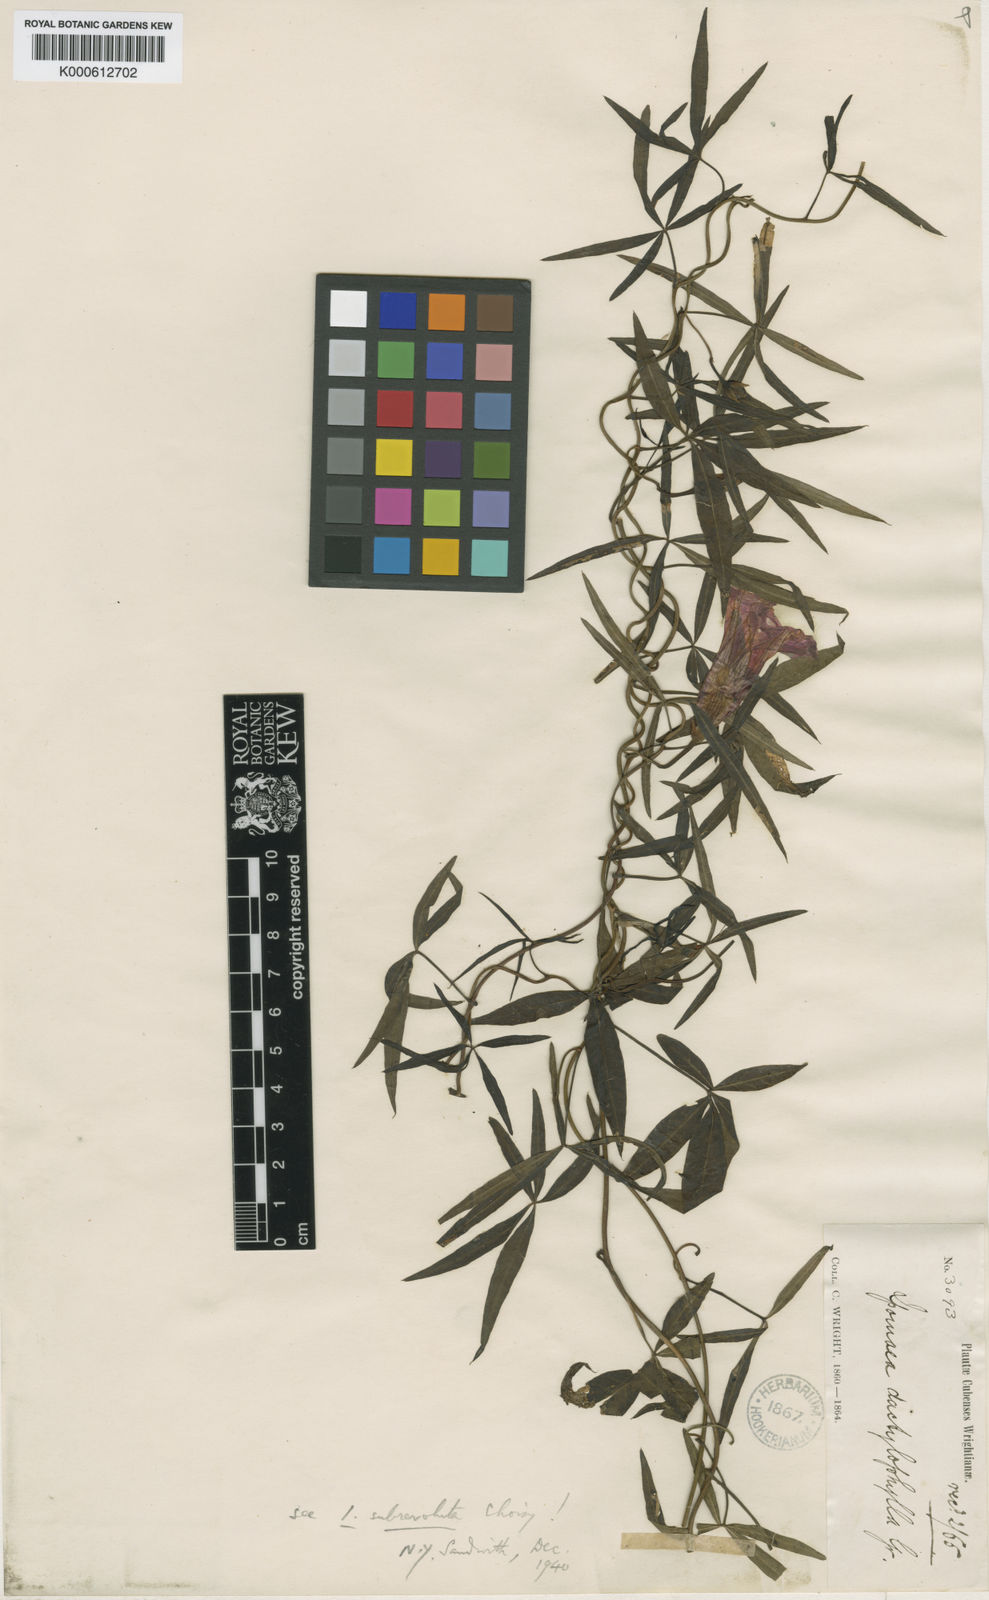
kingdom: Plantae
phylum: Tracheophyta
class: Magnoliopsida
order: Solanales
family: Convolvulaceae
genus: Ipomoea
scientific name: Ipomoea subrevoluta
